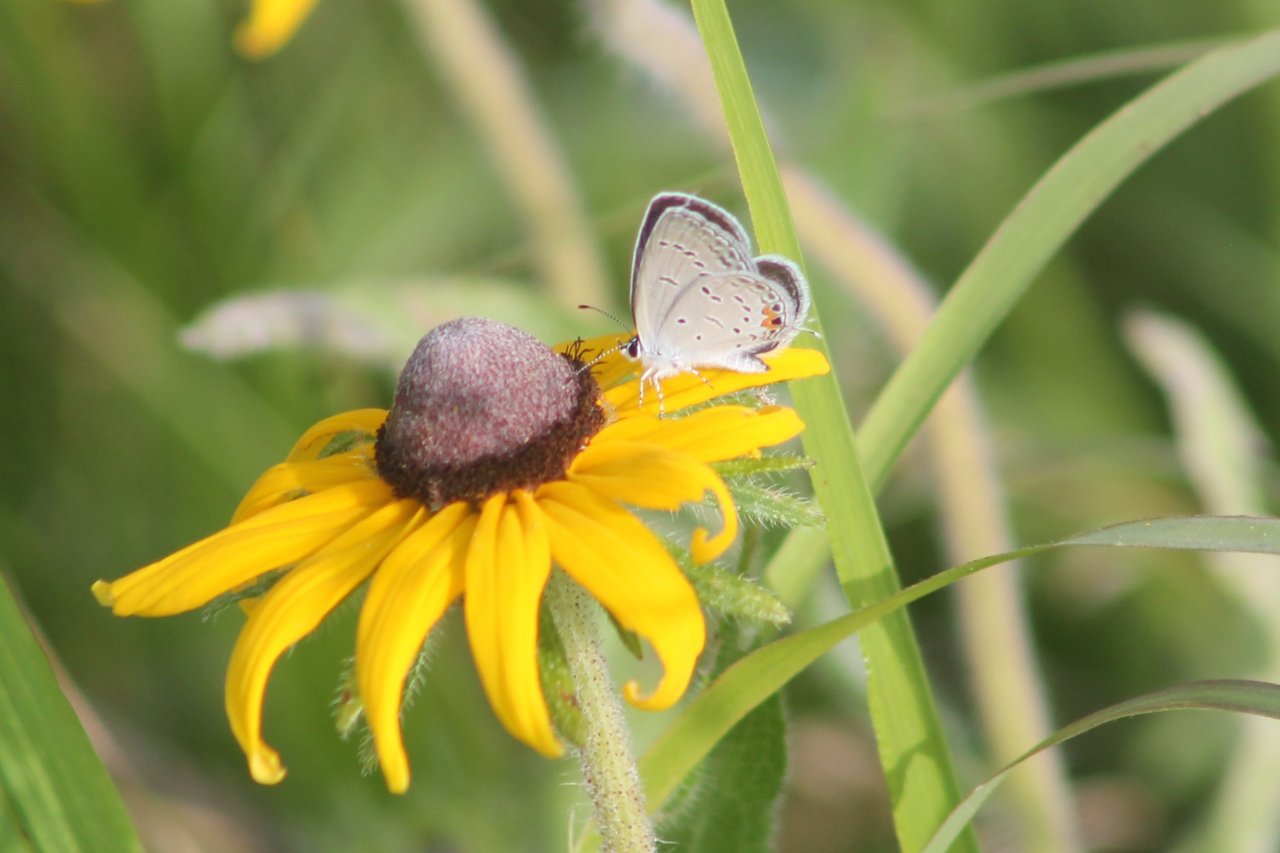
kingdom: Animalia
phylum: Arthropoda
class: Insecta
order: Lepidoptera
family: Lycaenidae
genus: Elkalyce
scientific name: Elkalyce comyntas
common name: Eastern Tailed-Blue
